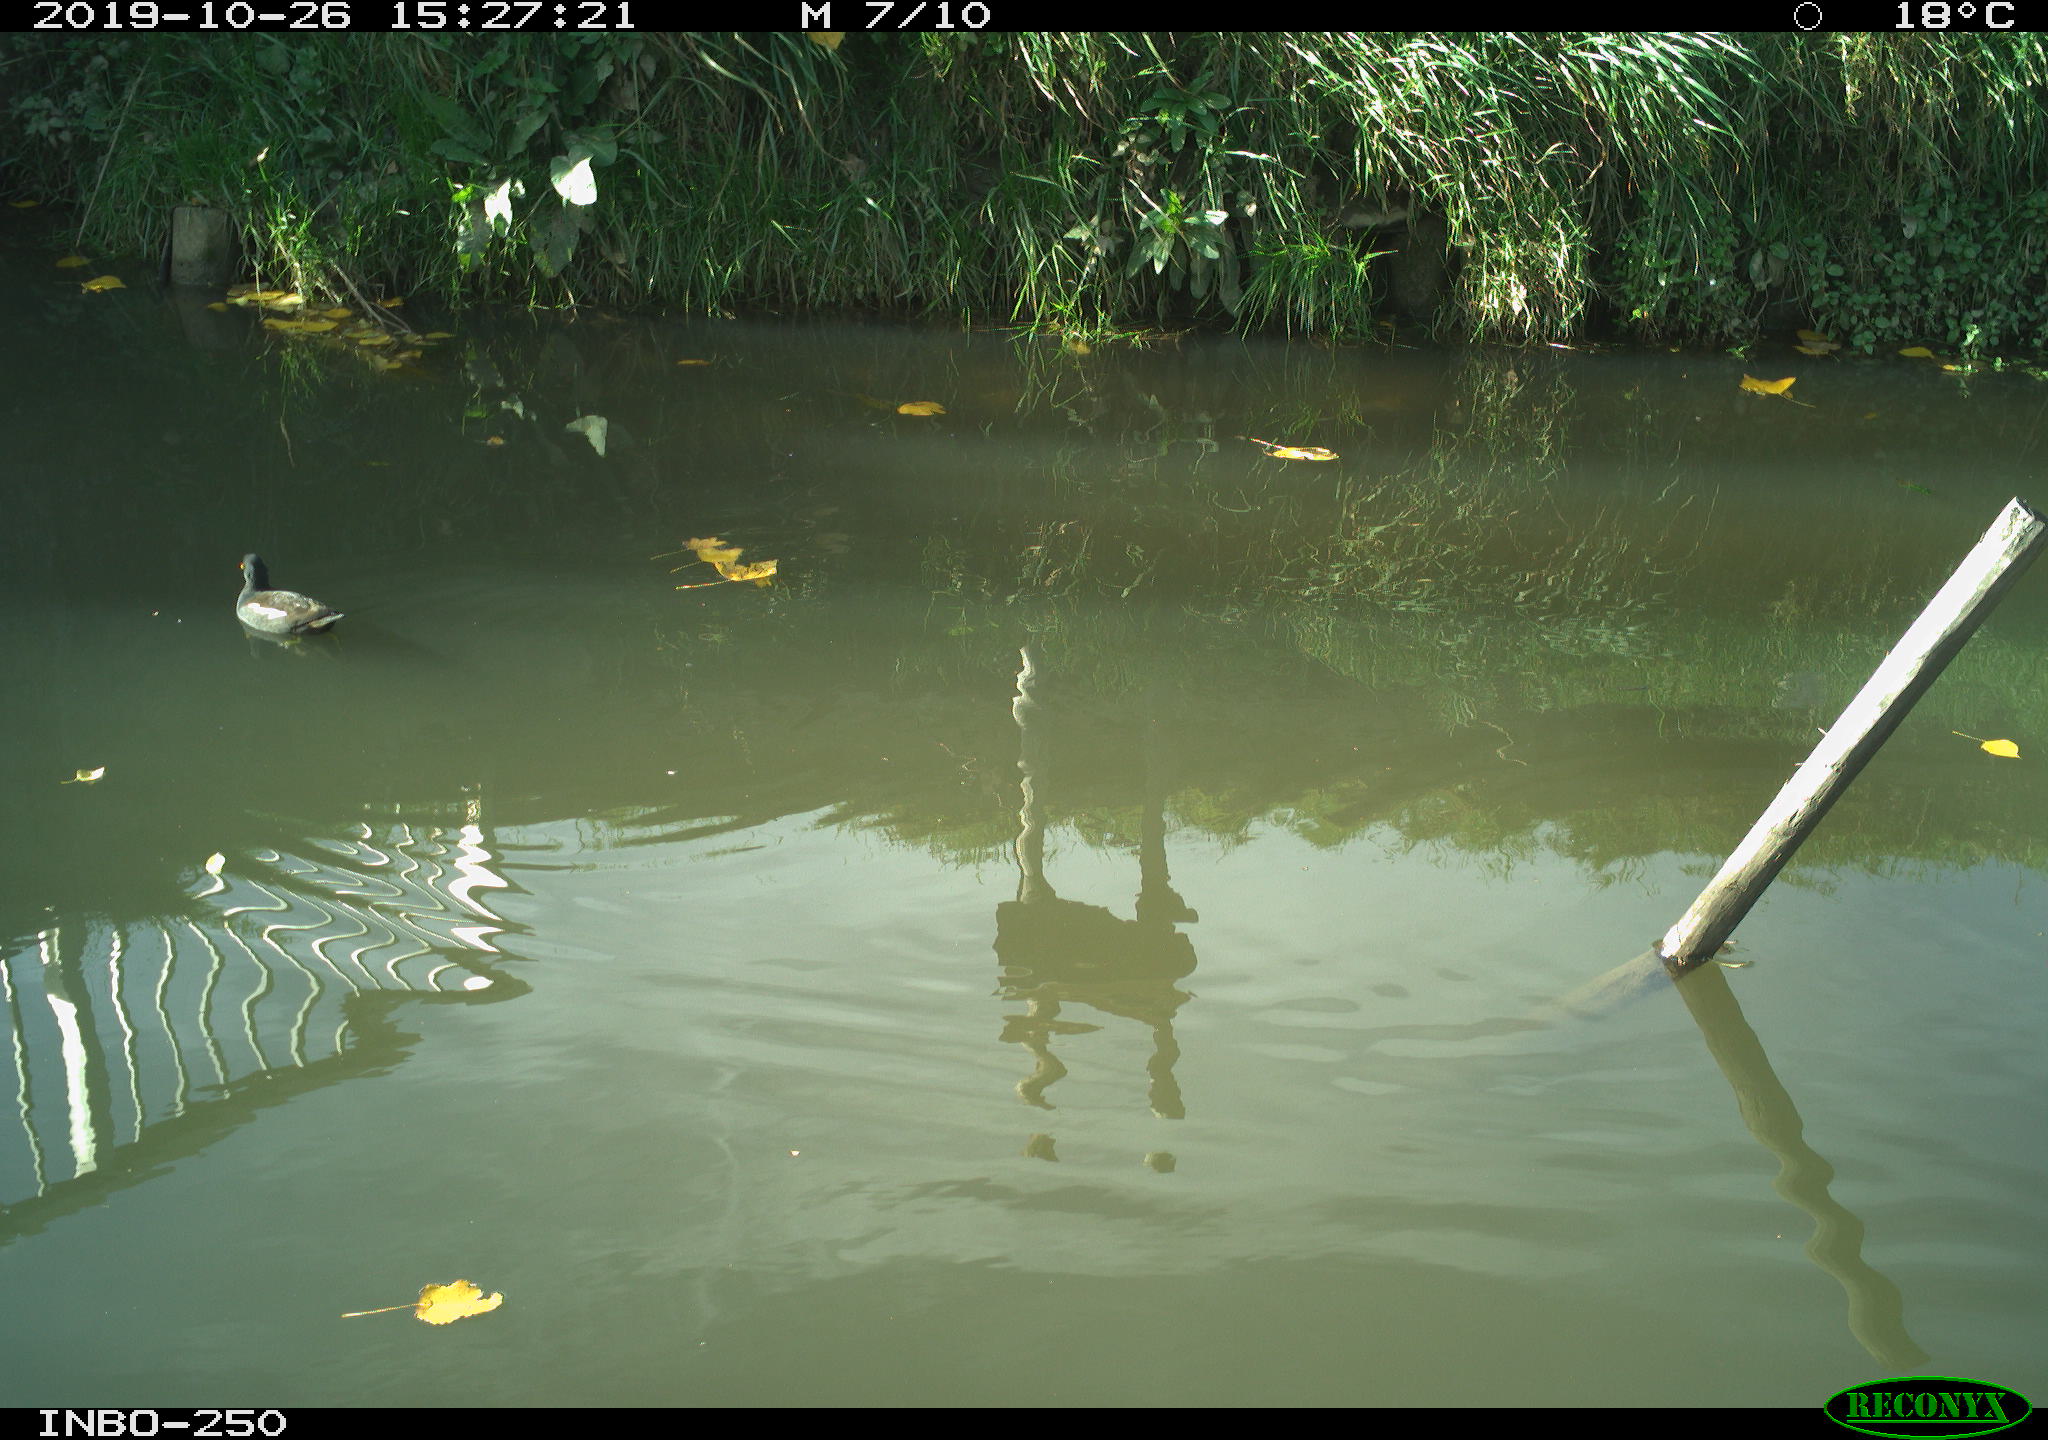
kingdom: Animalia
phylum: Chordata
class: Aves
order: Gruiformes
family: Rallidae
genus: Gallinula
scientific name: Gallinula chloropus
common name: Common moorhen
